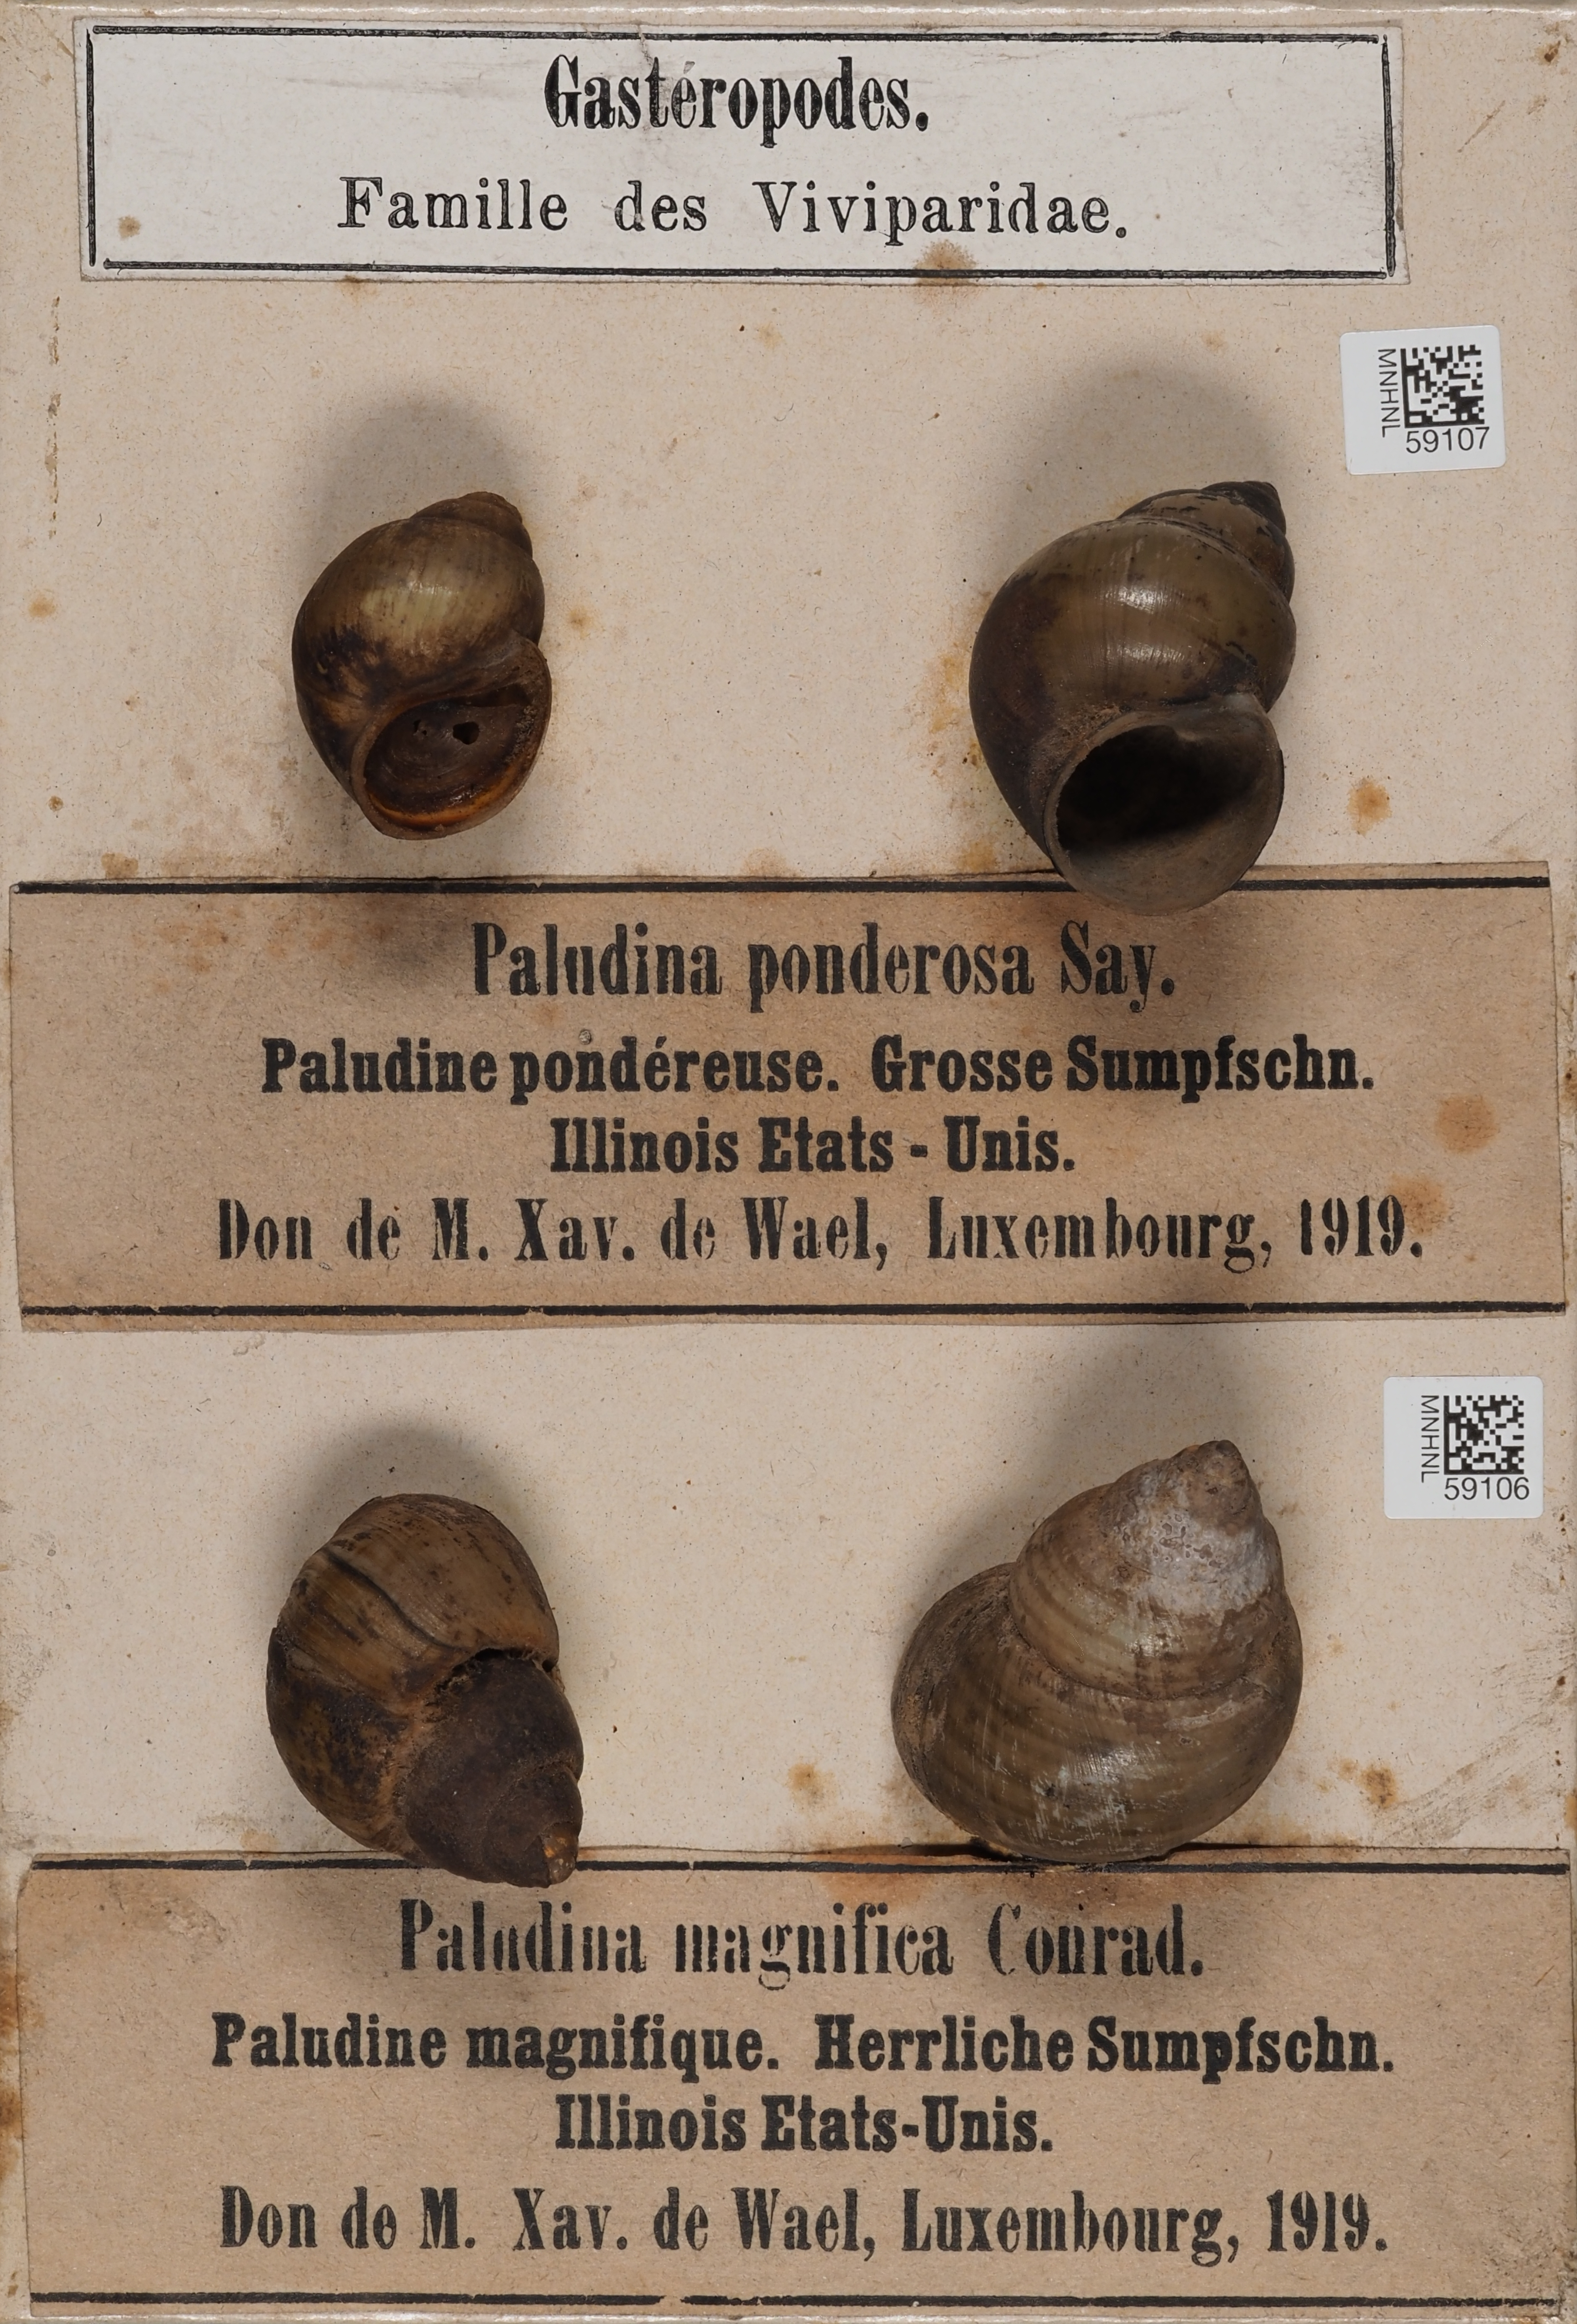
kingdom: Animalia
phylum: Mollusca
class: Gastropoda
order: Architaenioglossa
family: Viviparidae
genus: Campeloma
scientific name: Campeloma crassulum
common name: Ponderous campeloma
